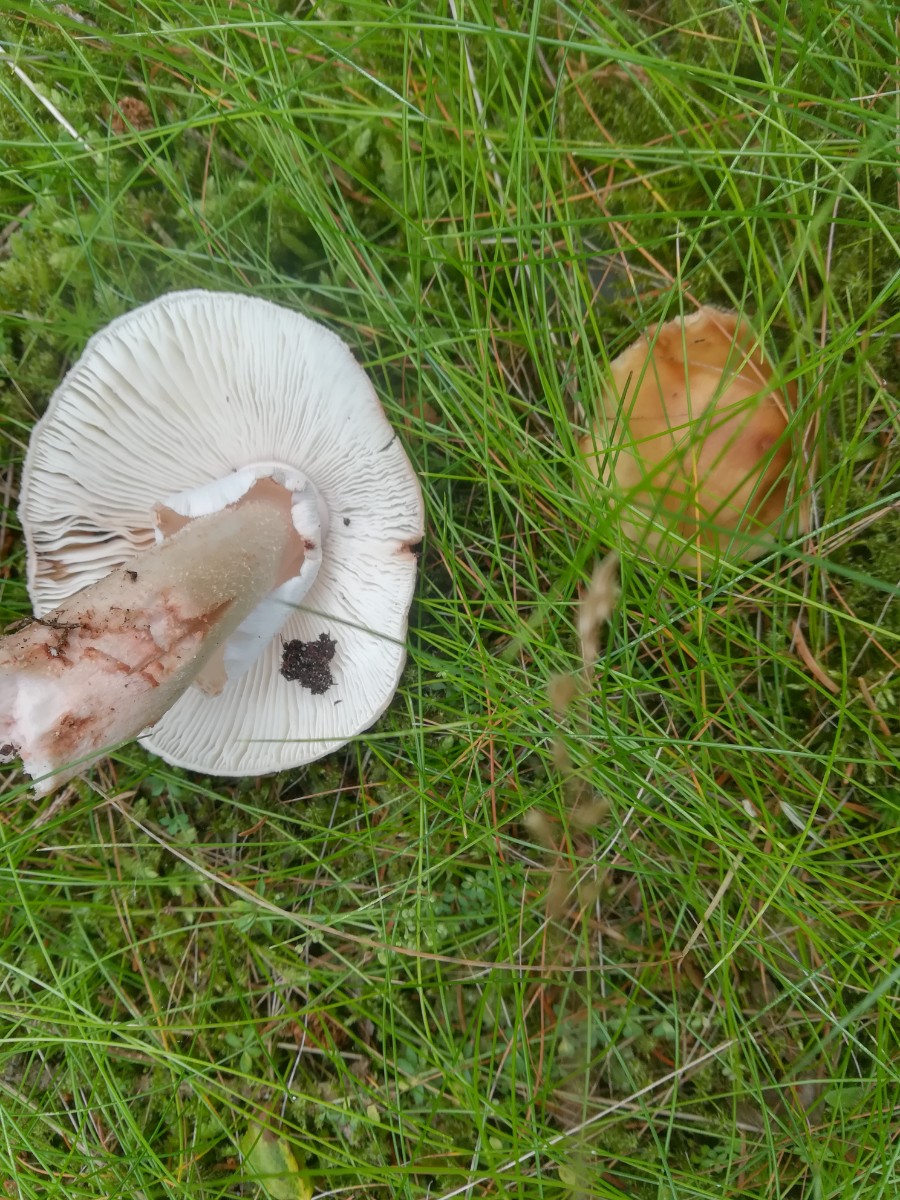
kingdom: Fungi
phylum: Basidiomycota
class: Agaricomycetes
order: Agaricales
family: Amanitaceae
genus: Amanita
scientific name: Amanita rubescens
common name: rødmende fluesvamp
